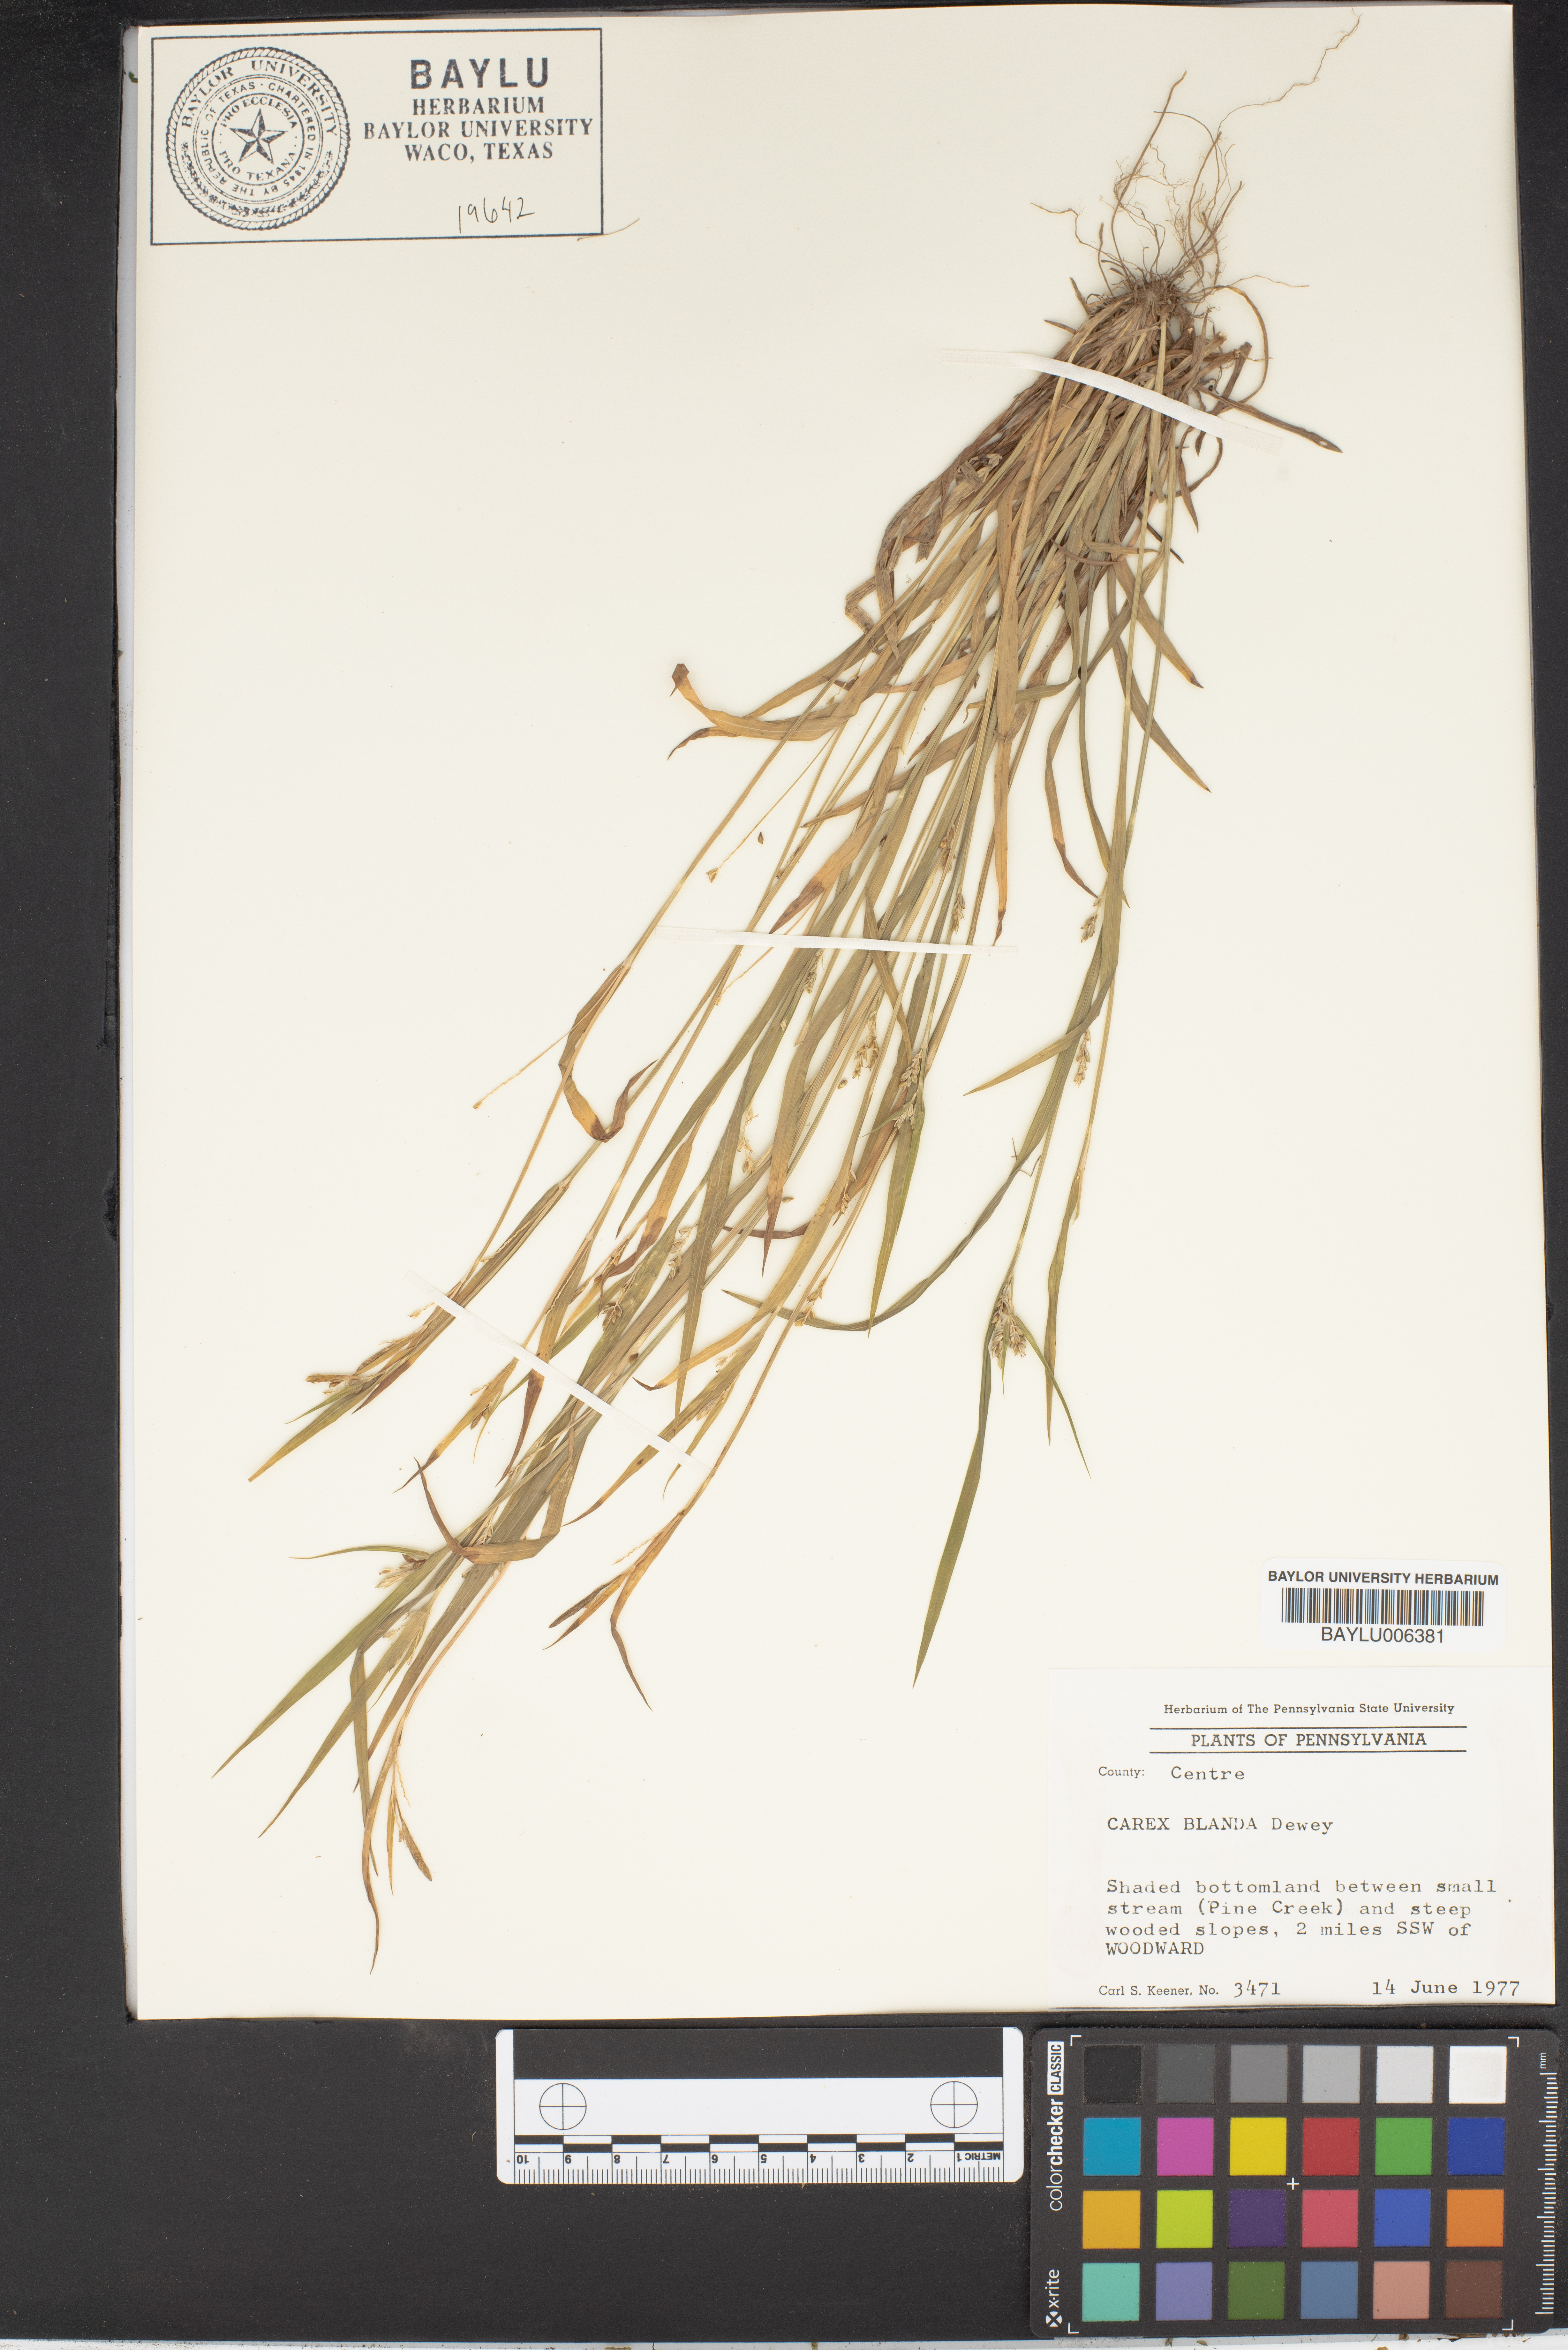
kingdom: Plantae
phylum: Tracheophyta
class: Liliopsida
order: Poales
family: Cyperaceae
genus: Carex
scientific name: Carex blanda
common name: Bland sedge
